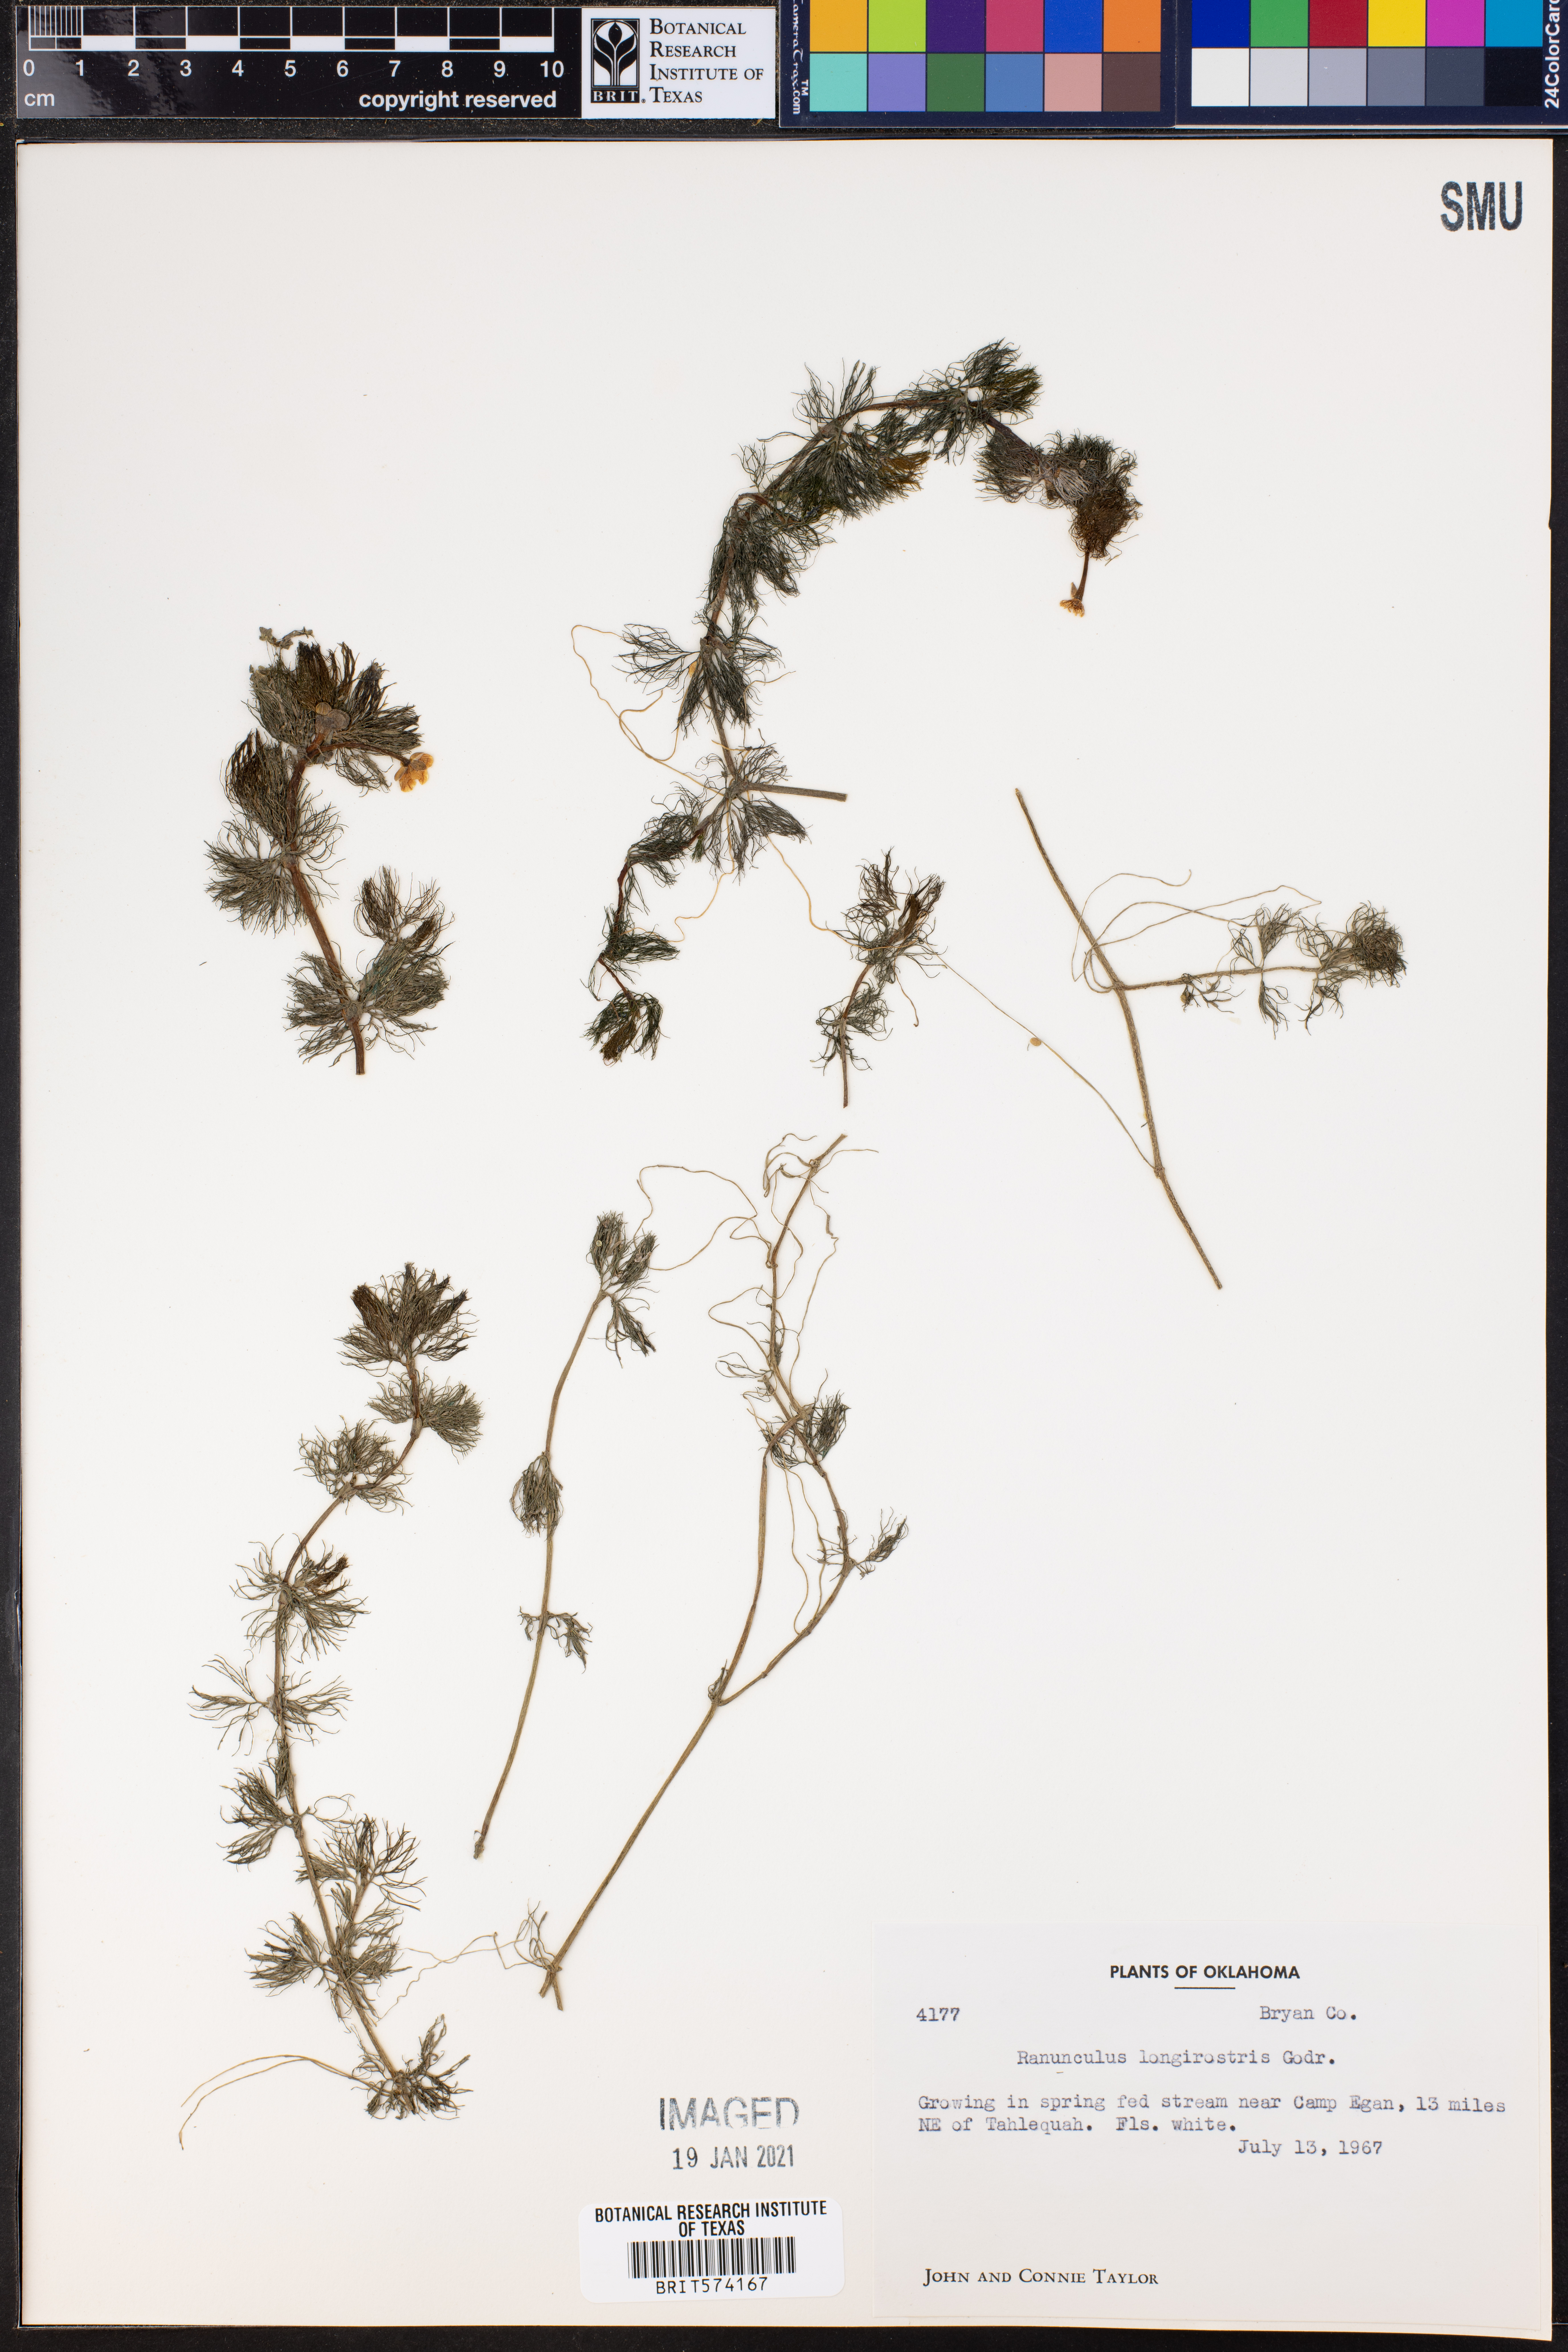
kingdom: Plantae
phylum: Tracheophyta
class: Magnoliopsida
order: Ranunculales
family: Ranunculaceae
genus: Ranunculus
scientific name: Ranunculus longirostris
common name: Curly white water-crowfoot
